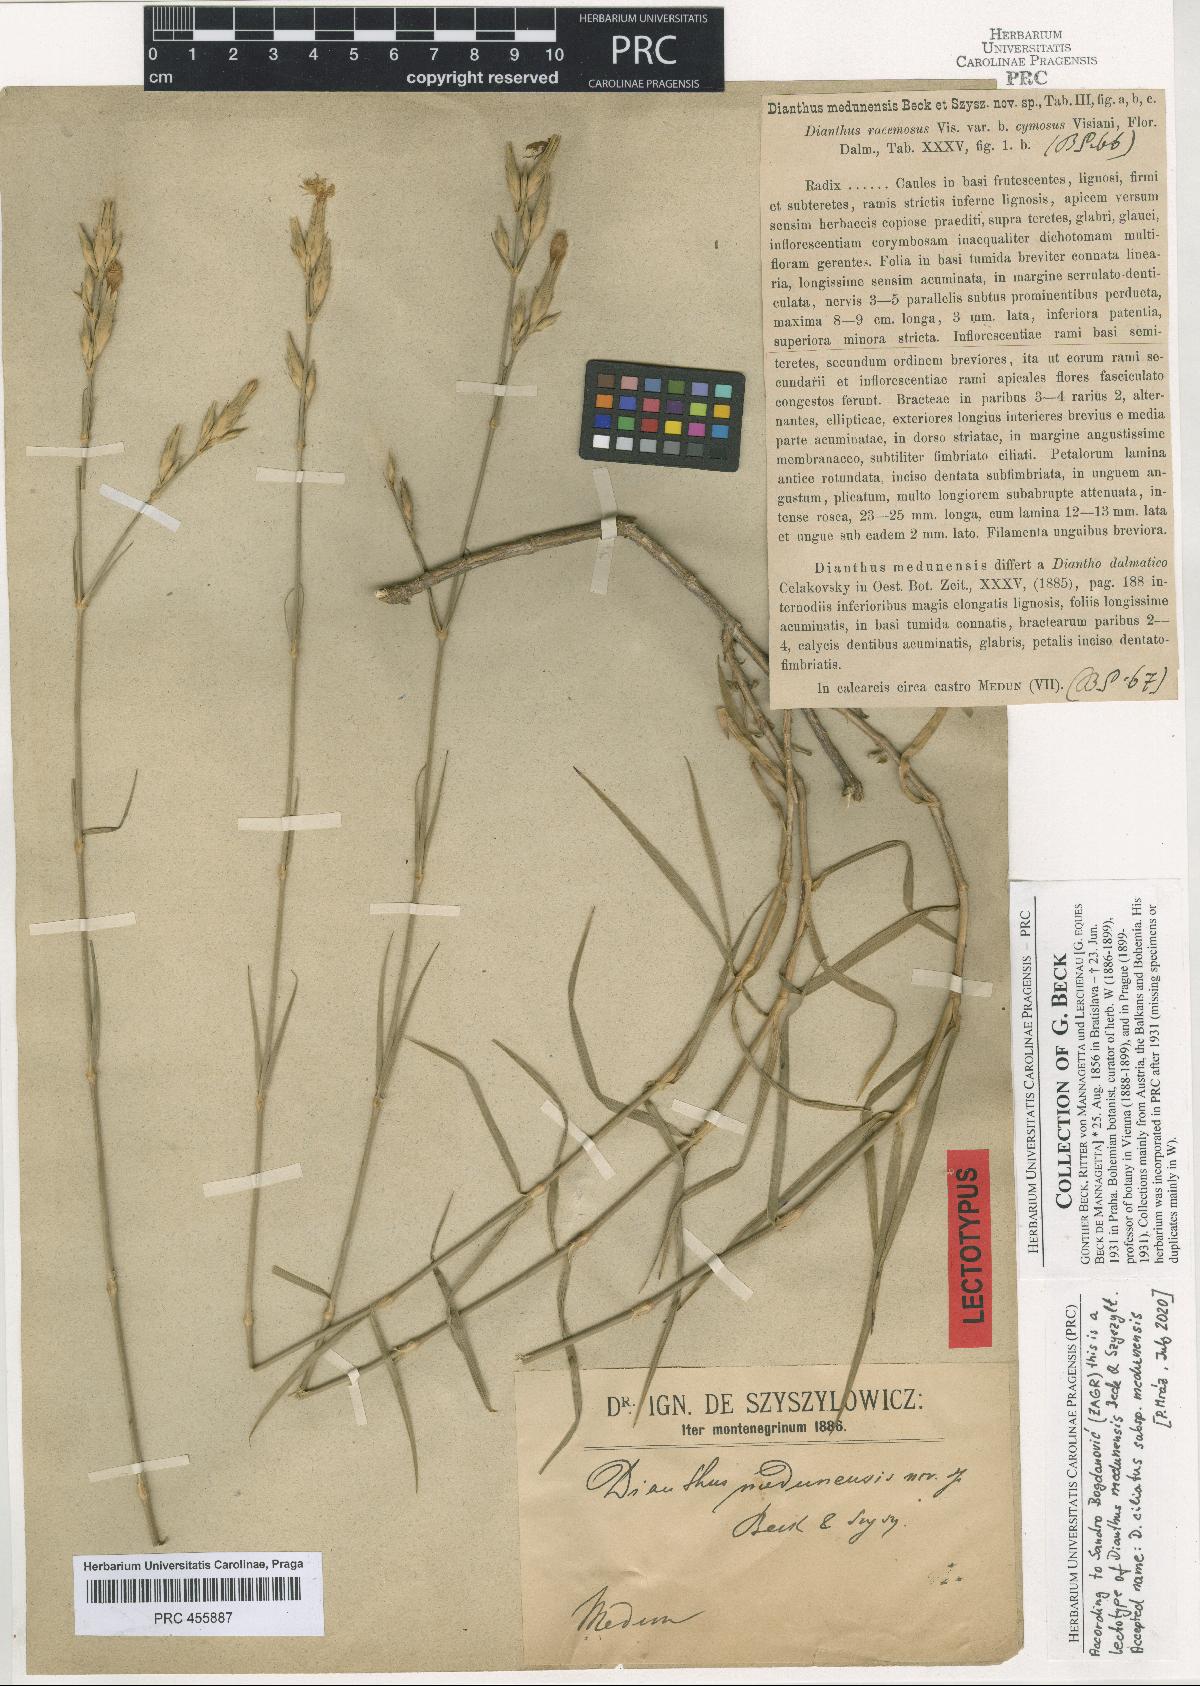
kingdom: Plantae
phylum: Tracheophyta
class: Magnoliopsida
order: Caryophyllales
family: Caryophyllaceae
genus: Dianthus
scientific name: Dianthus ciliatus
